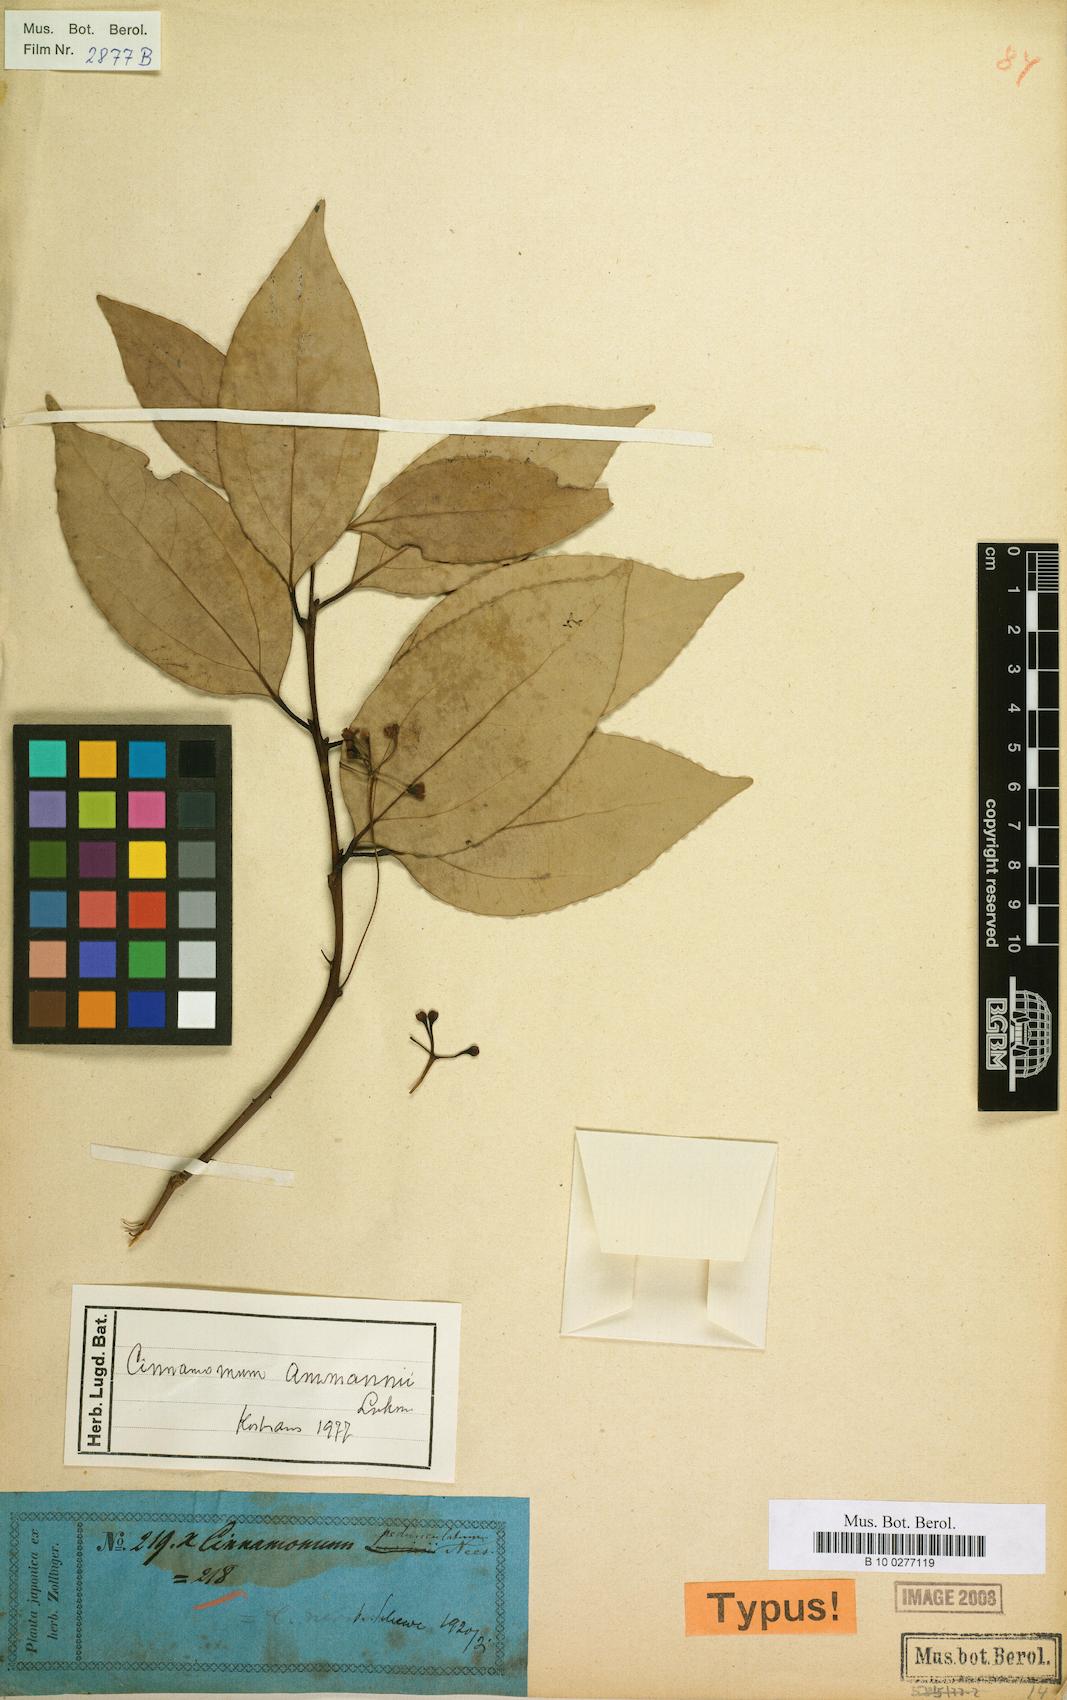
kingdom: Plantae
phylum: Tracheophyta
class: Magnoliopsida
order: Laurales
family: Lauraceae
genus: Cinnamomum
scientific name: Cinnamomum burmanni
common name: Padang cassia
